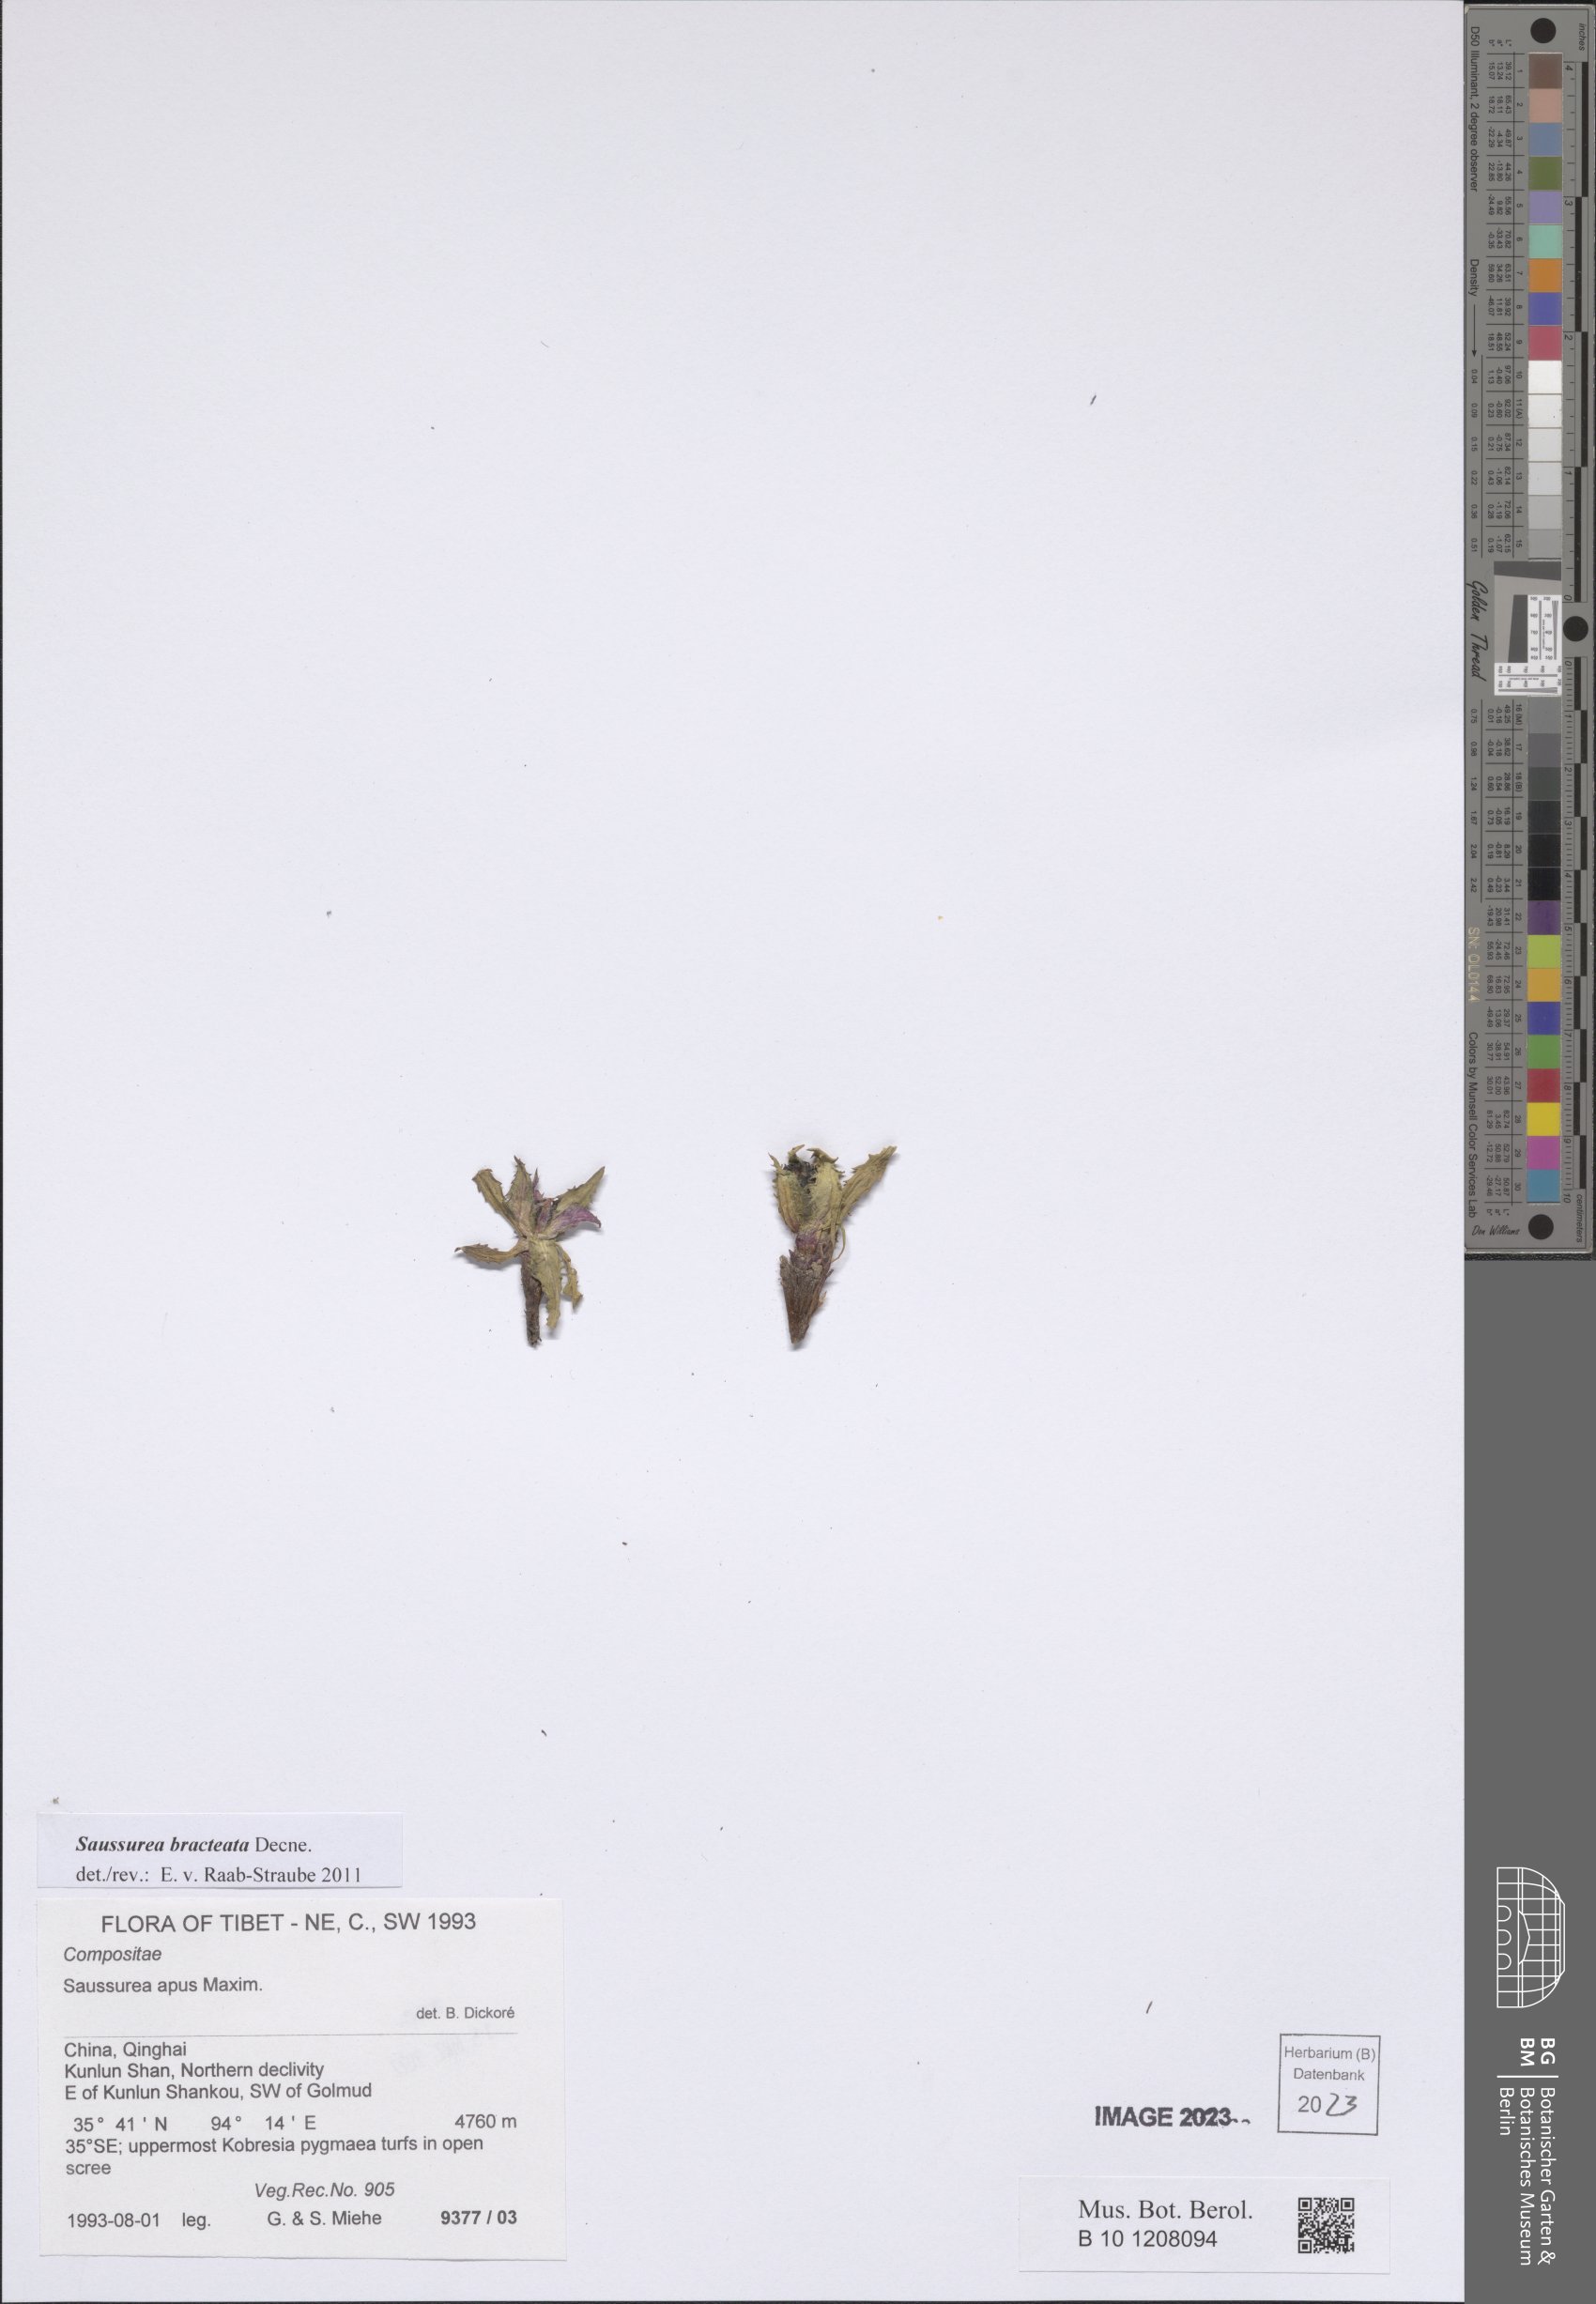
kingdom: Plantae
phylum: Tracheophyta
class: Magnoliopsida
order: Asterales
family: Asteraceae
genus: Saussurea
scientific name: Saussurea bracteata
